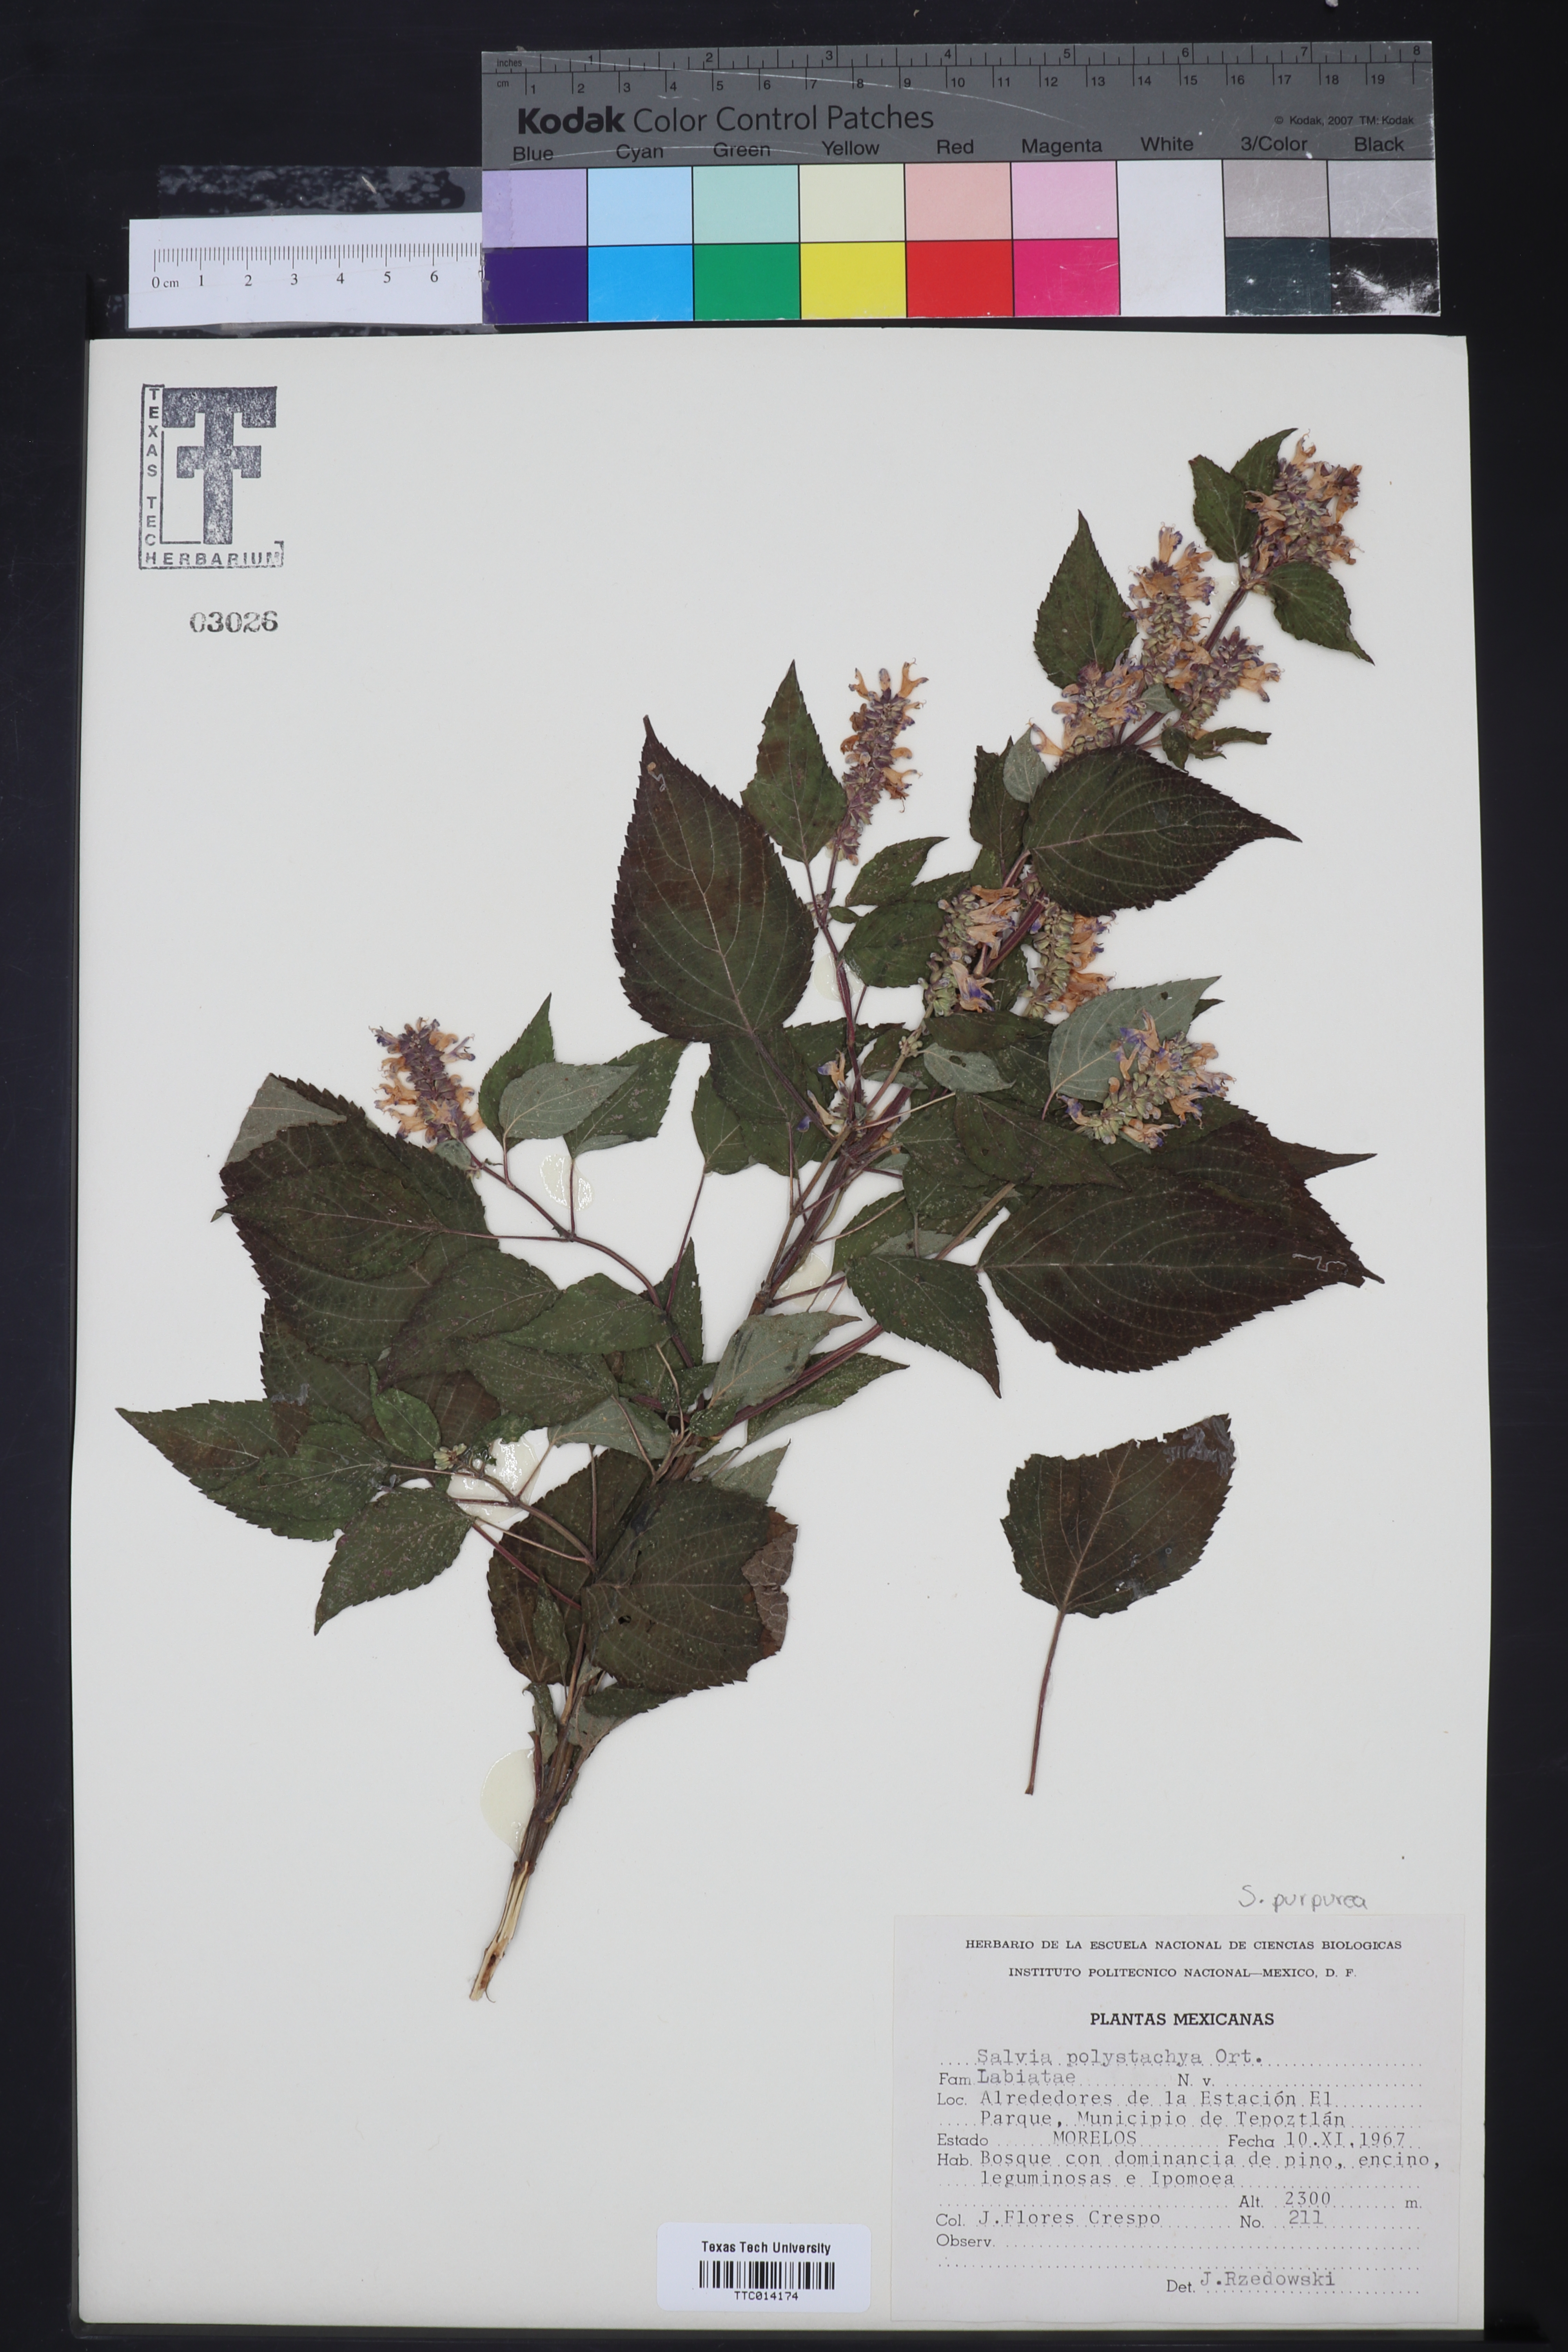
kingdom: Plantae
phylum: Tracheophyta
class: Magnoliopsida
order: Lamiales
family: Lamiaceae
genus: Salvia
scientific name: Salvia polystachya
